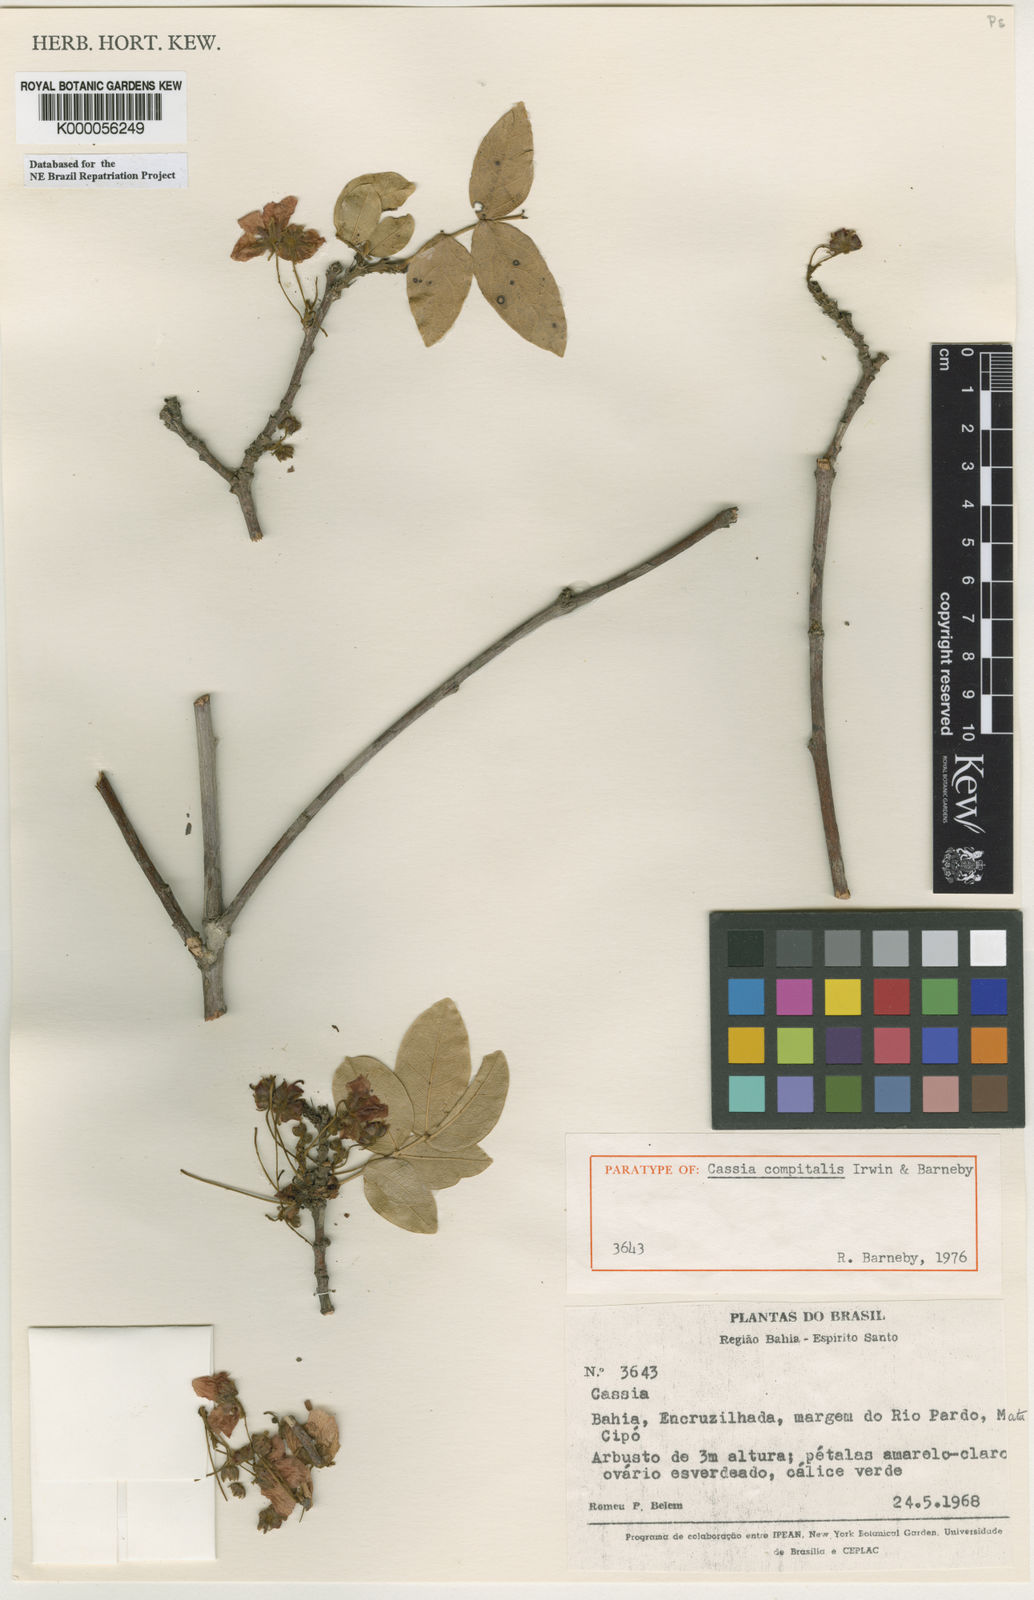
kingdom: Plantae
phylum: Tracheophyta
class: Magnoliopsida
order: Fabales
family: Fabaceae
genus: Chamaecrista
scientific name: Chamaecrista compitalis
